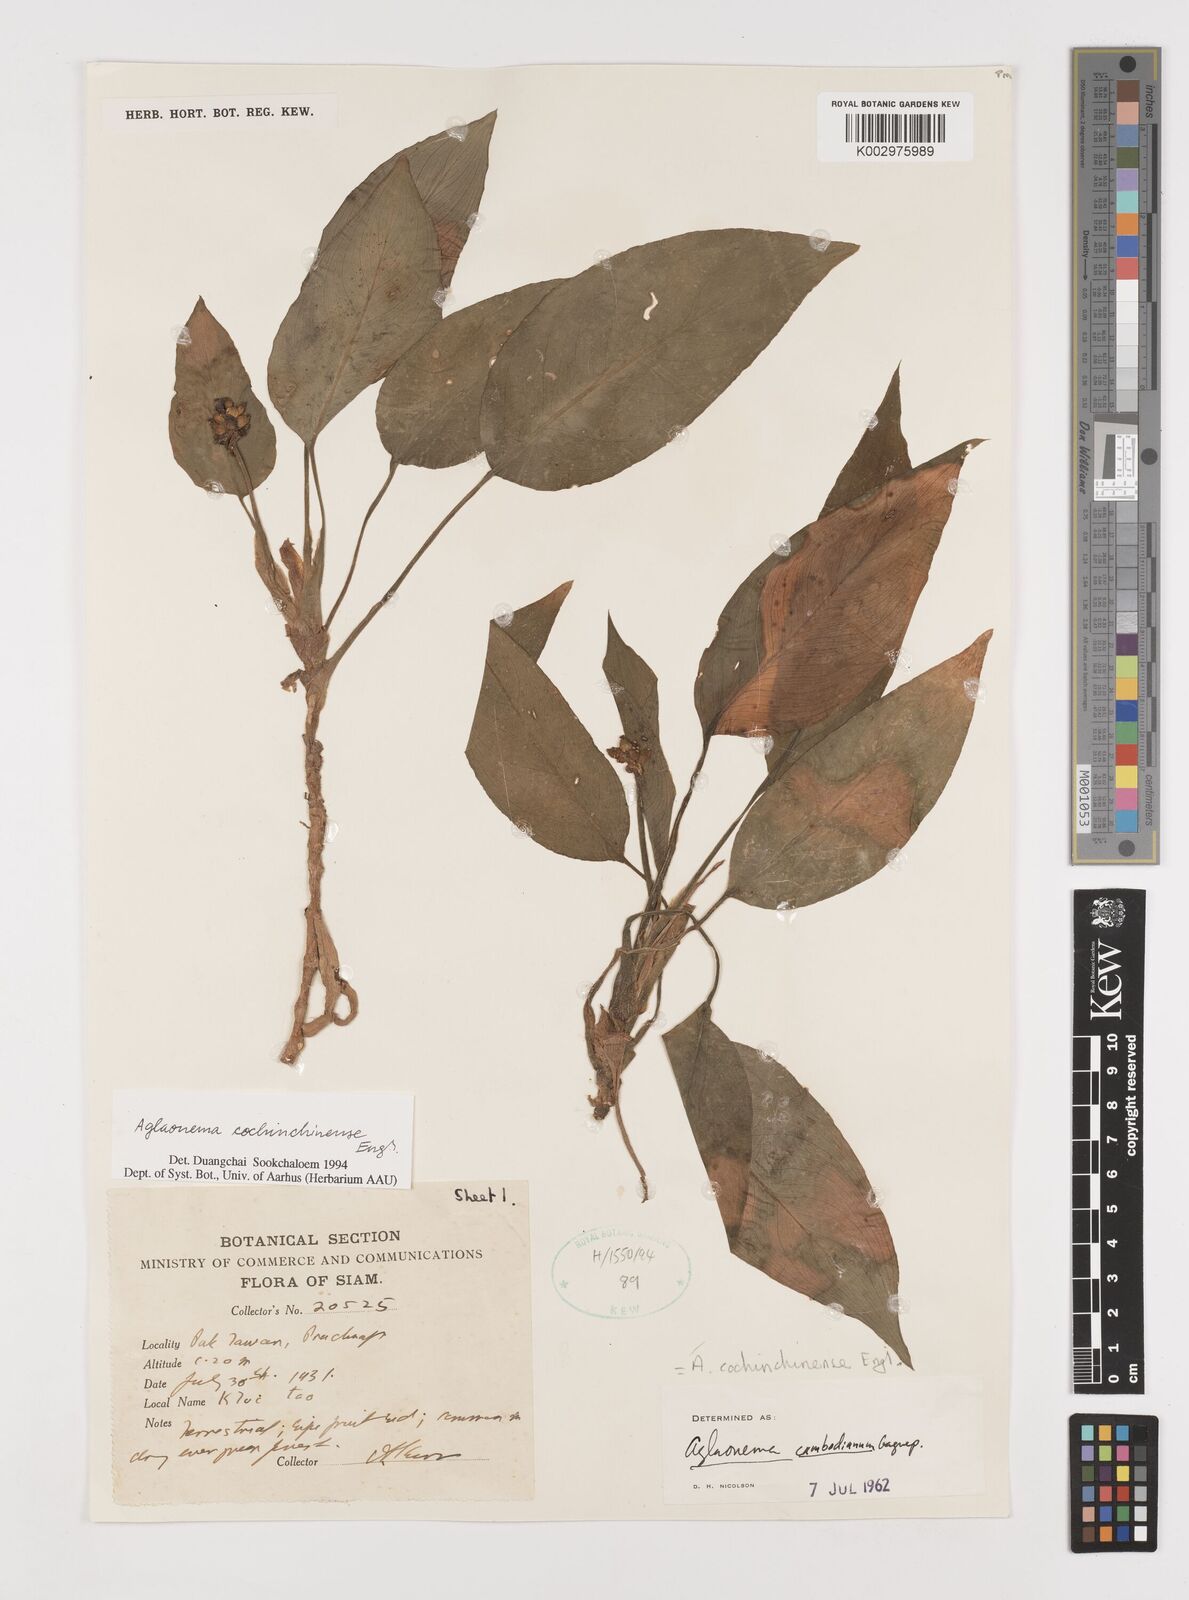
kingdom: Plantae
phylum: Tracheophyta
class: Liliopsida
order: Alismatales
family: Araceae
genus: Aglaonema
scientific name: Aglaonema cochinchinense
